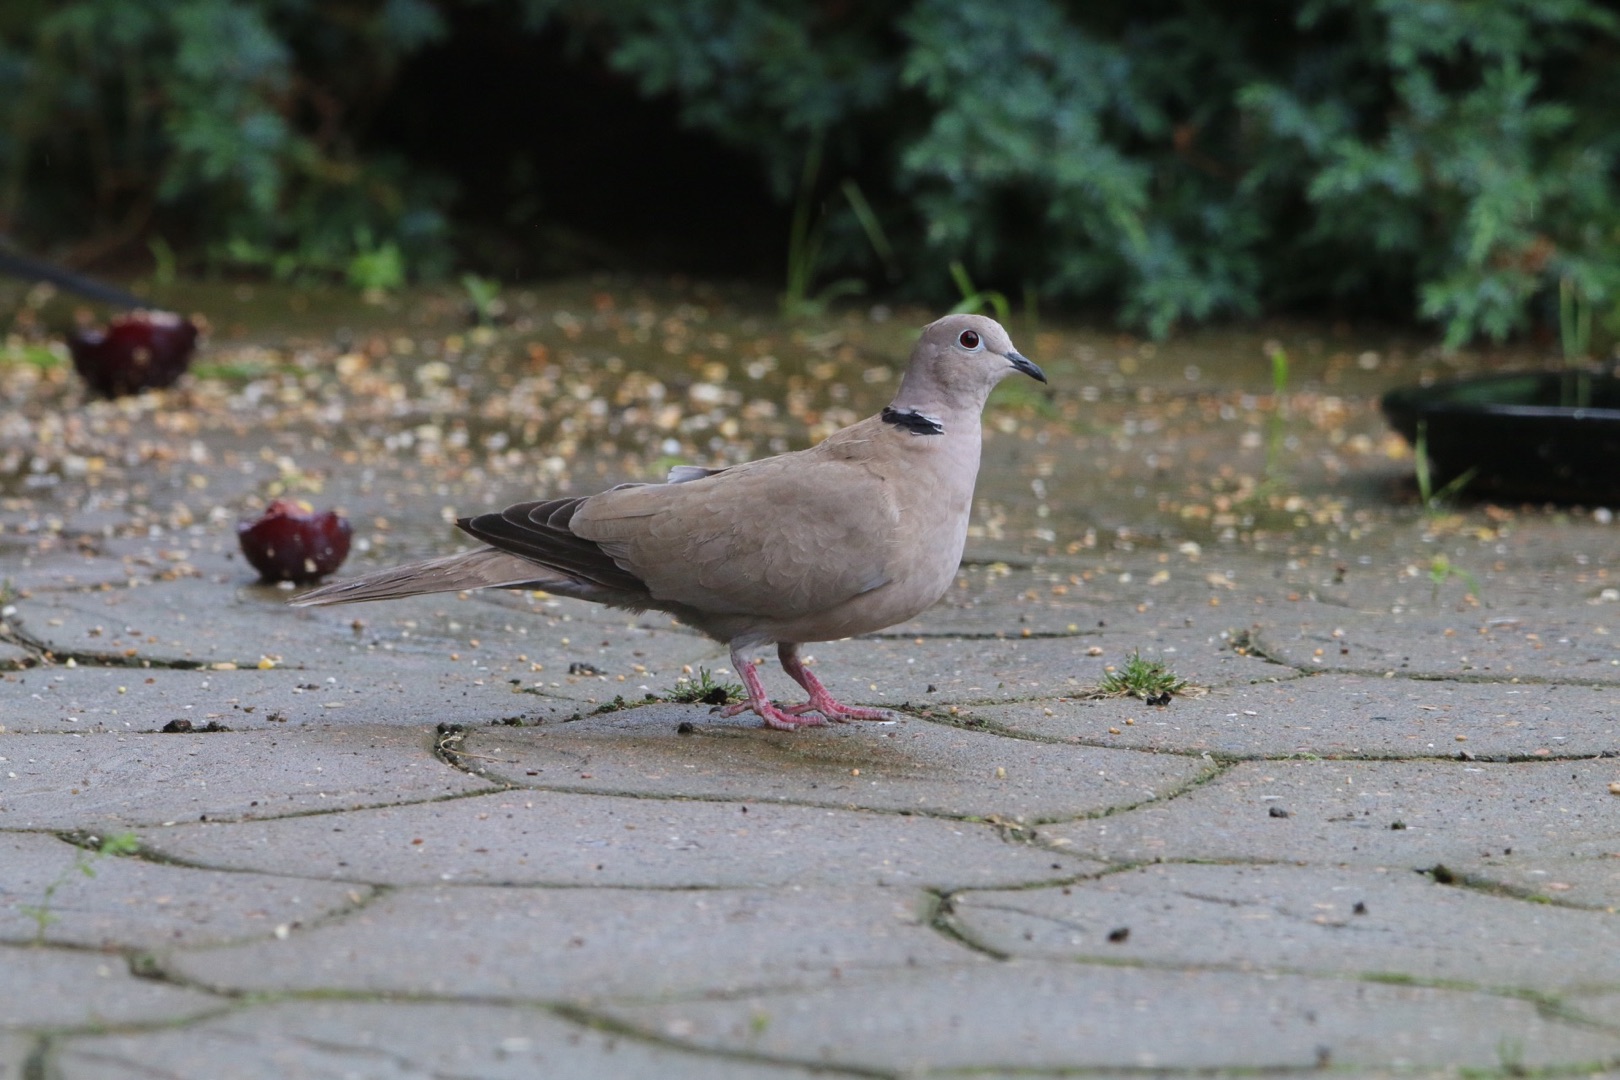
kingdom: Animalia
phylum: Chordata
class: Aves
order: Columbiformes
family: Columbidae
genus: Streptopelia
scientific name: Streptopelia decaocto
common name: Tyrkerdue
